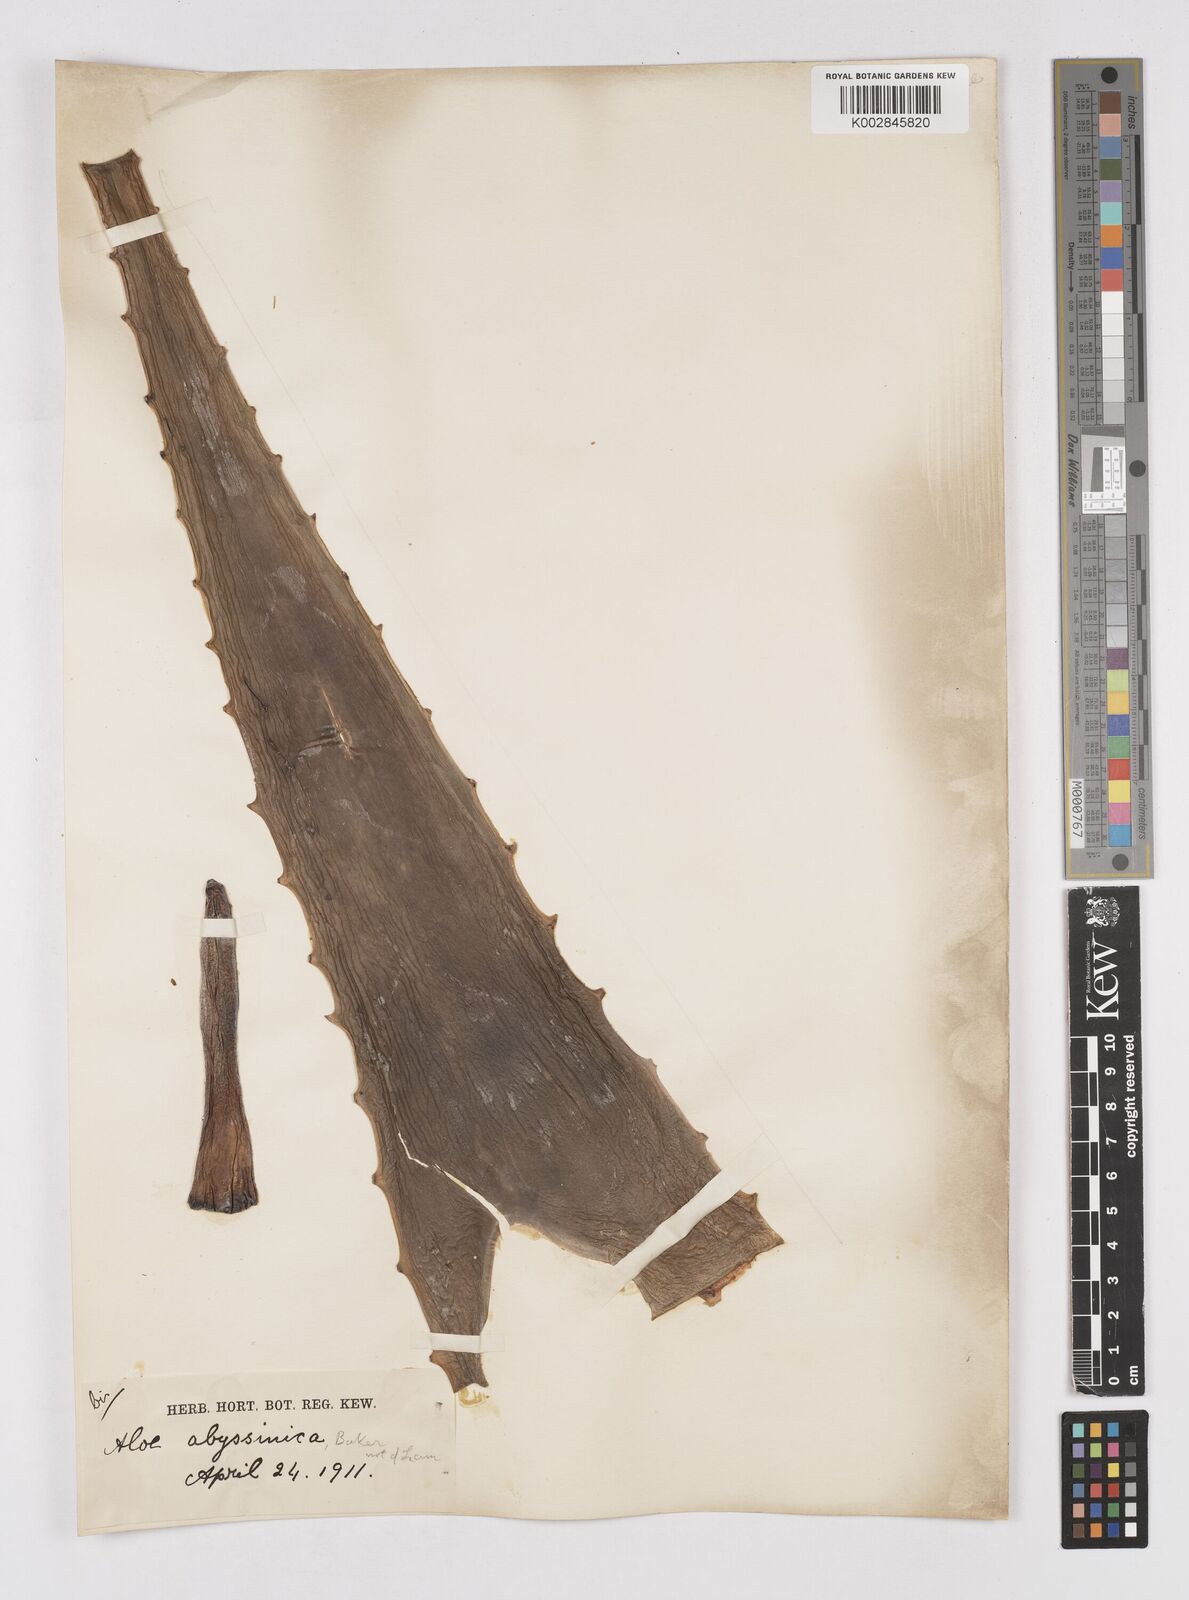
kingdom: Plantae
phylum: Tracheophyta
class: Liliopsida
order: Asparagales
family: Asphodelaceae
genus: Aloe
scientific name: Aloe camperi
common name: Camper's aloe
